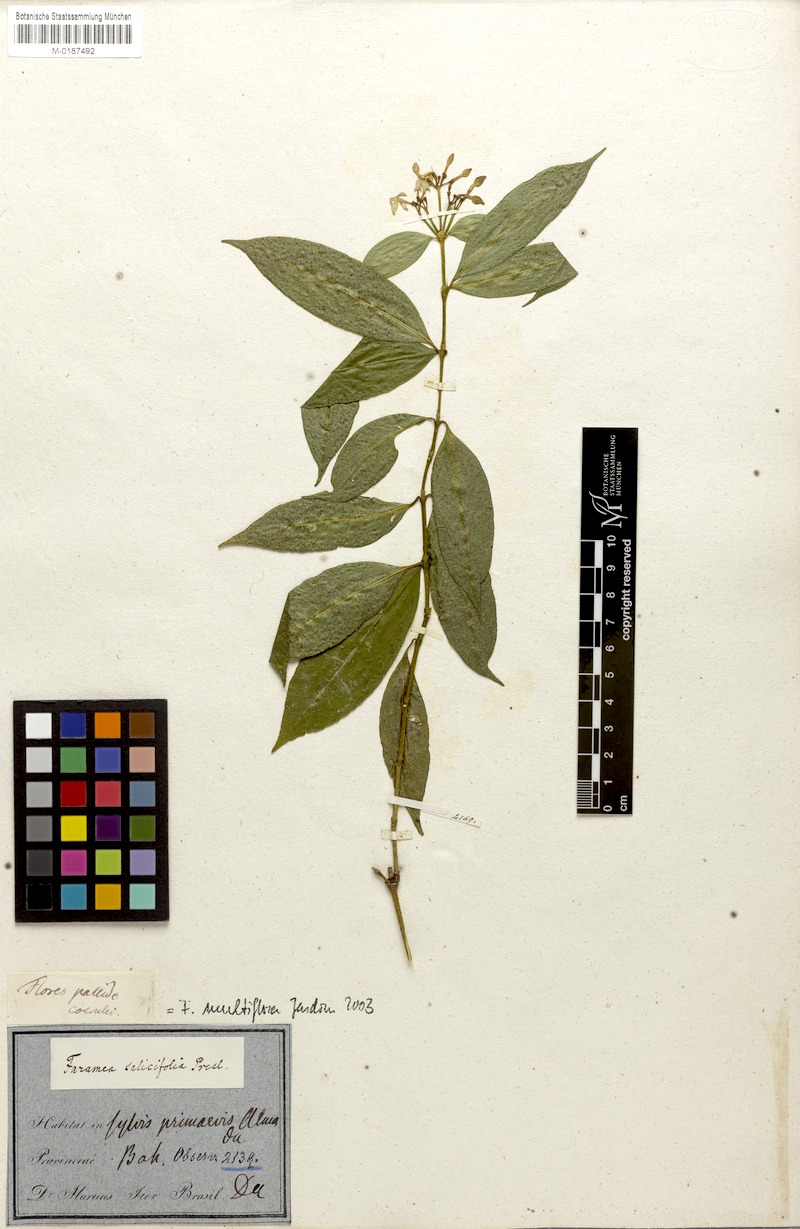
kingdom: Plantae
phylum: Tracheophyta
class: Magnoliopsida
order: Gentianales
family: Rubiaceae
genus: Faramea
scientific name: Faramea multiflora
